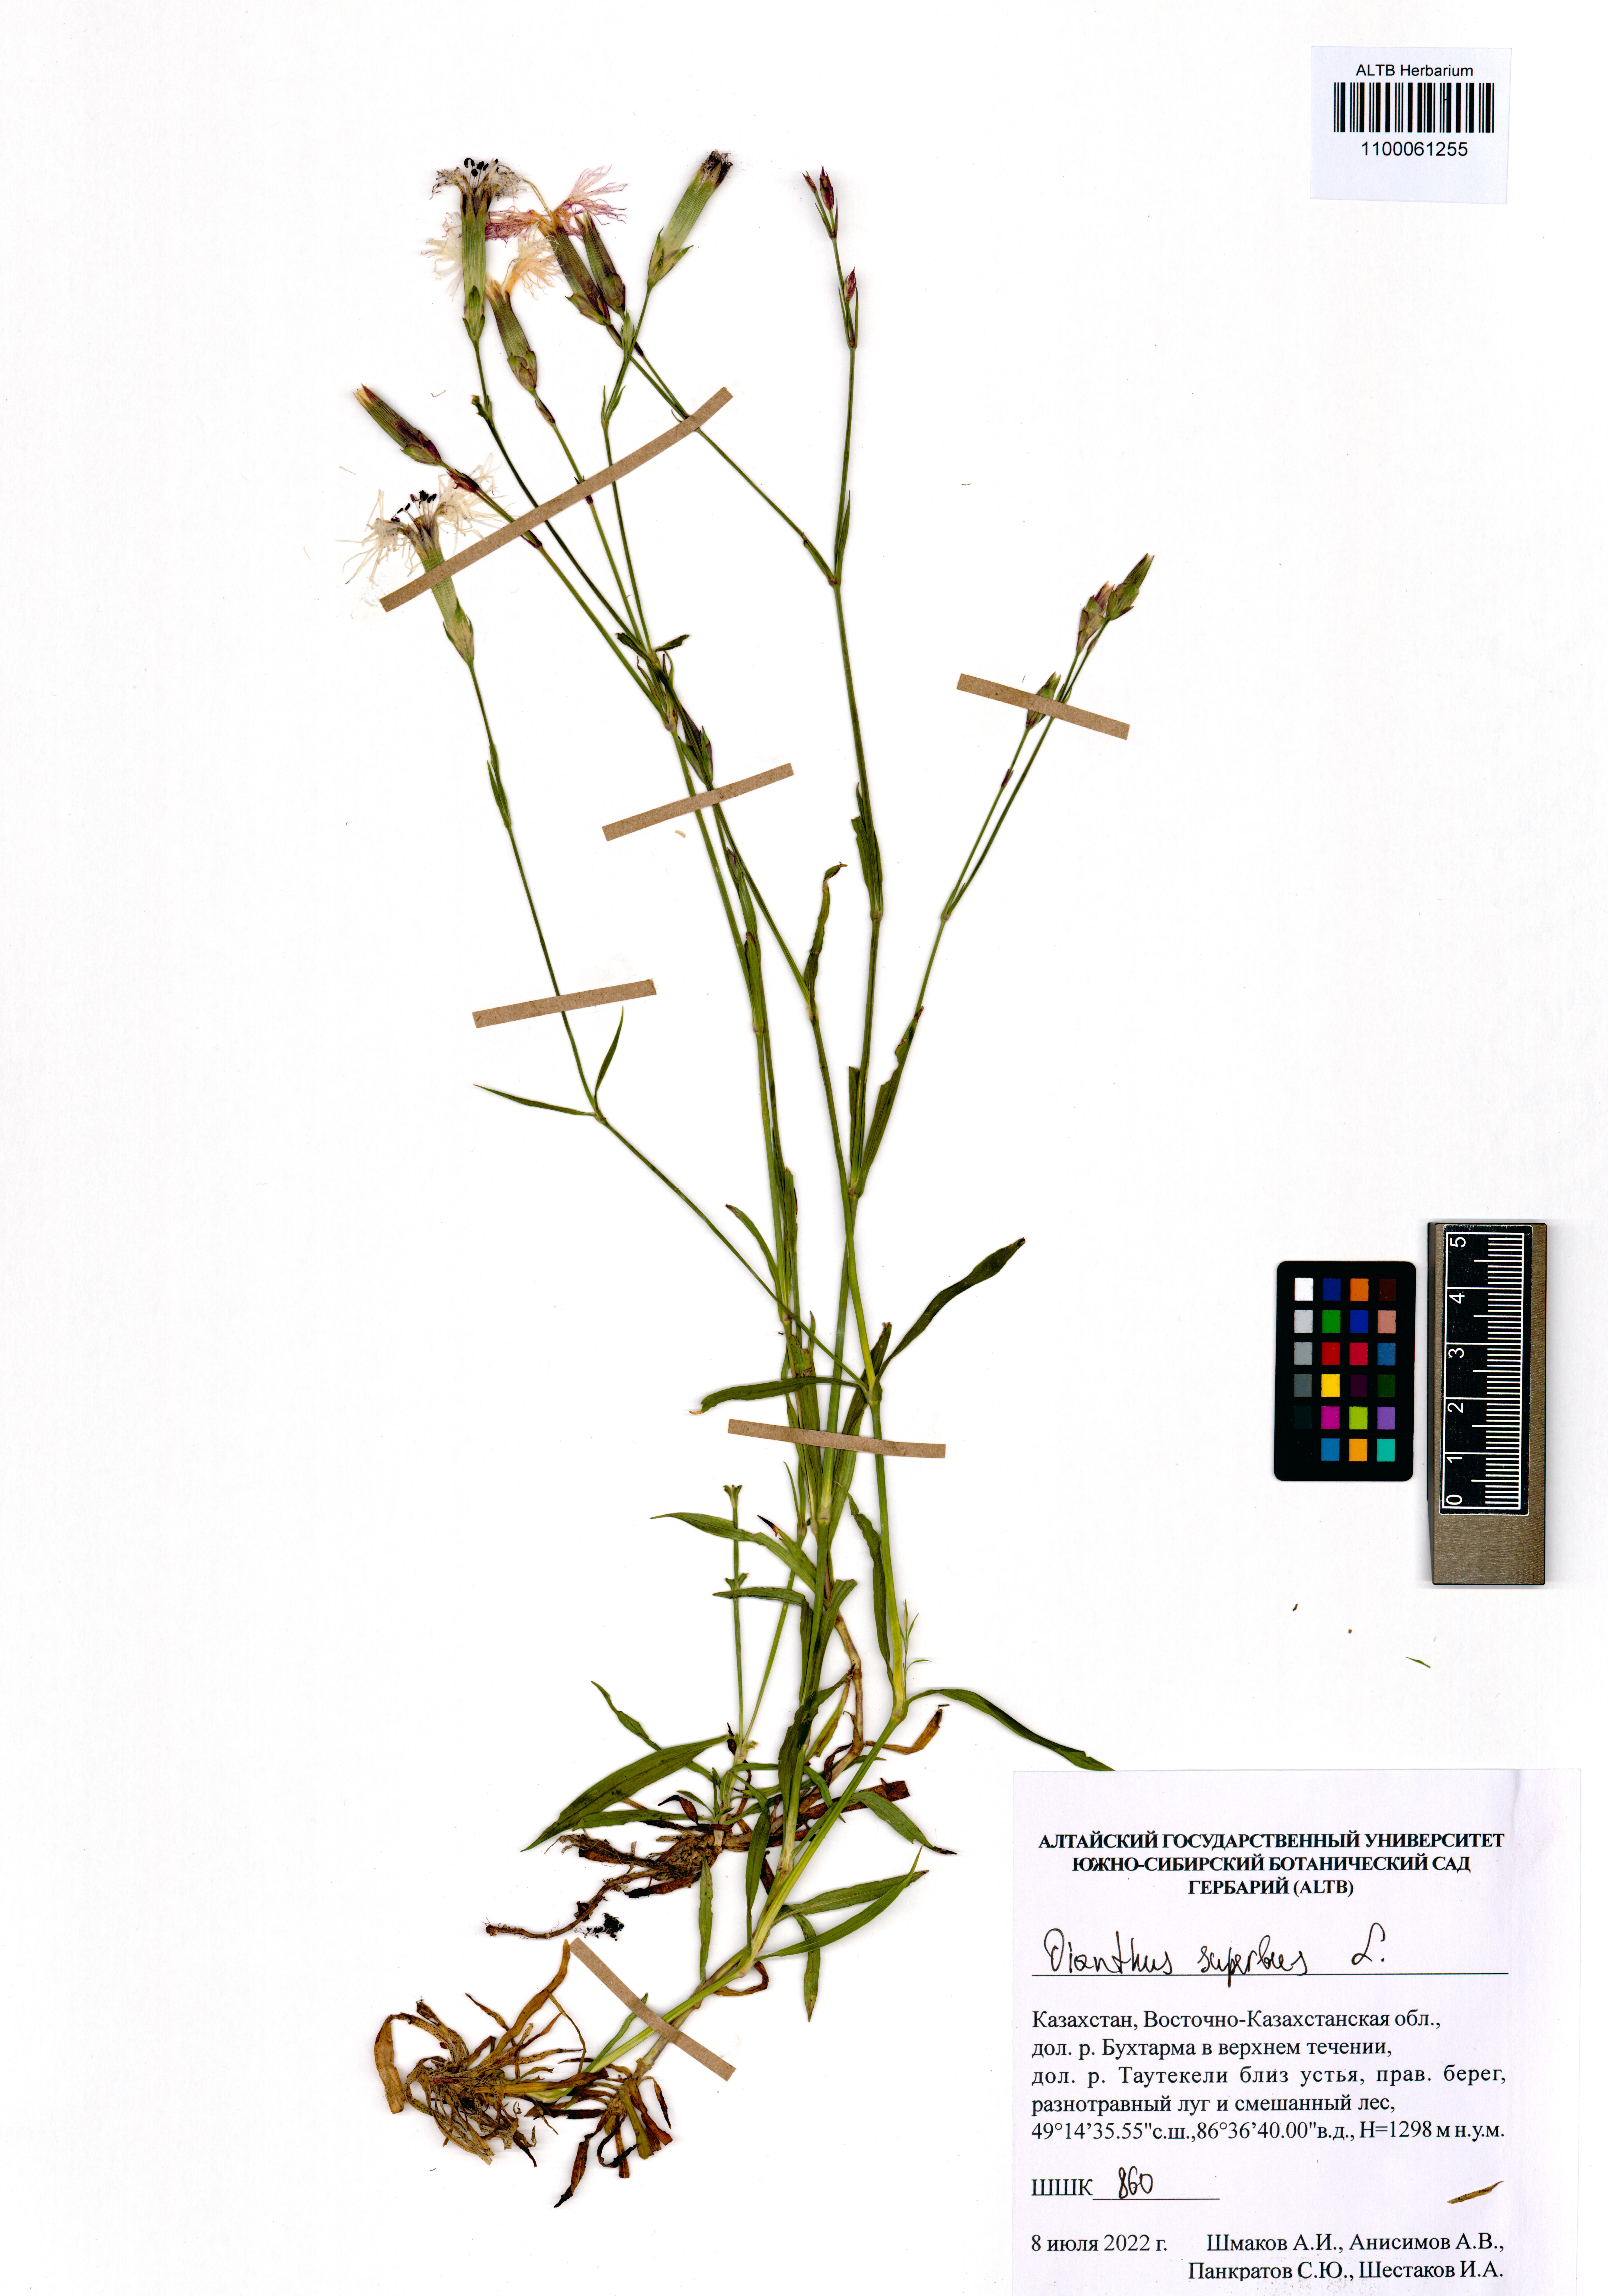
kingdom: Plantae
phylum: Tracheophyta
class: Magnoliopsida
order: Caryophyllales
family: Caryophyllaceae
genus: Dianthus
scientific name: Dianthus superbus
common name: Fringed pink
